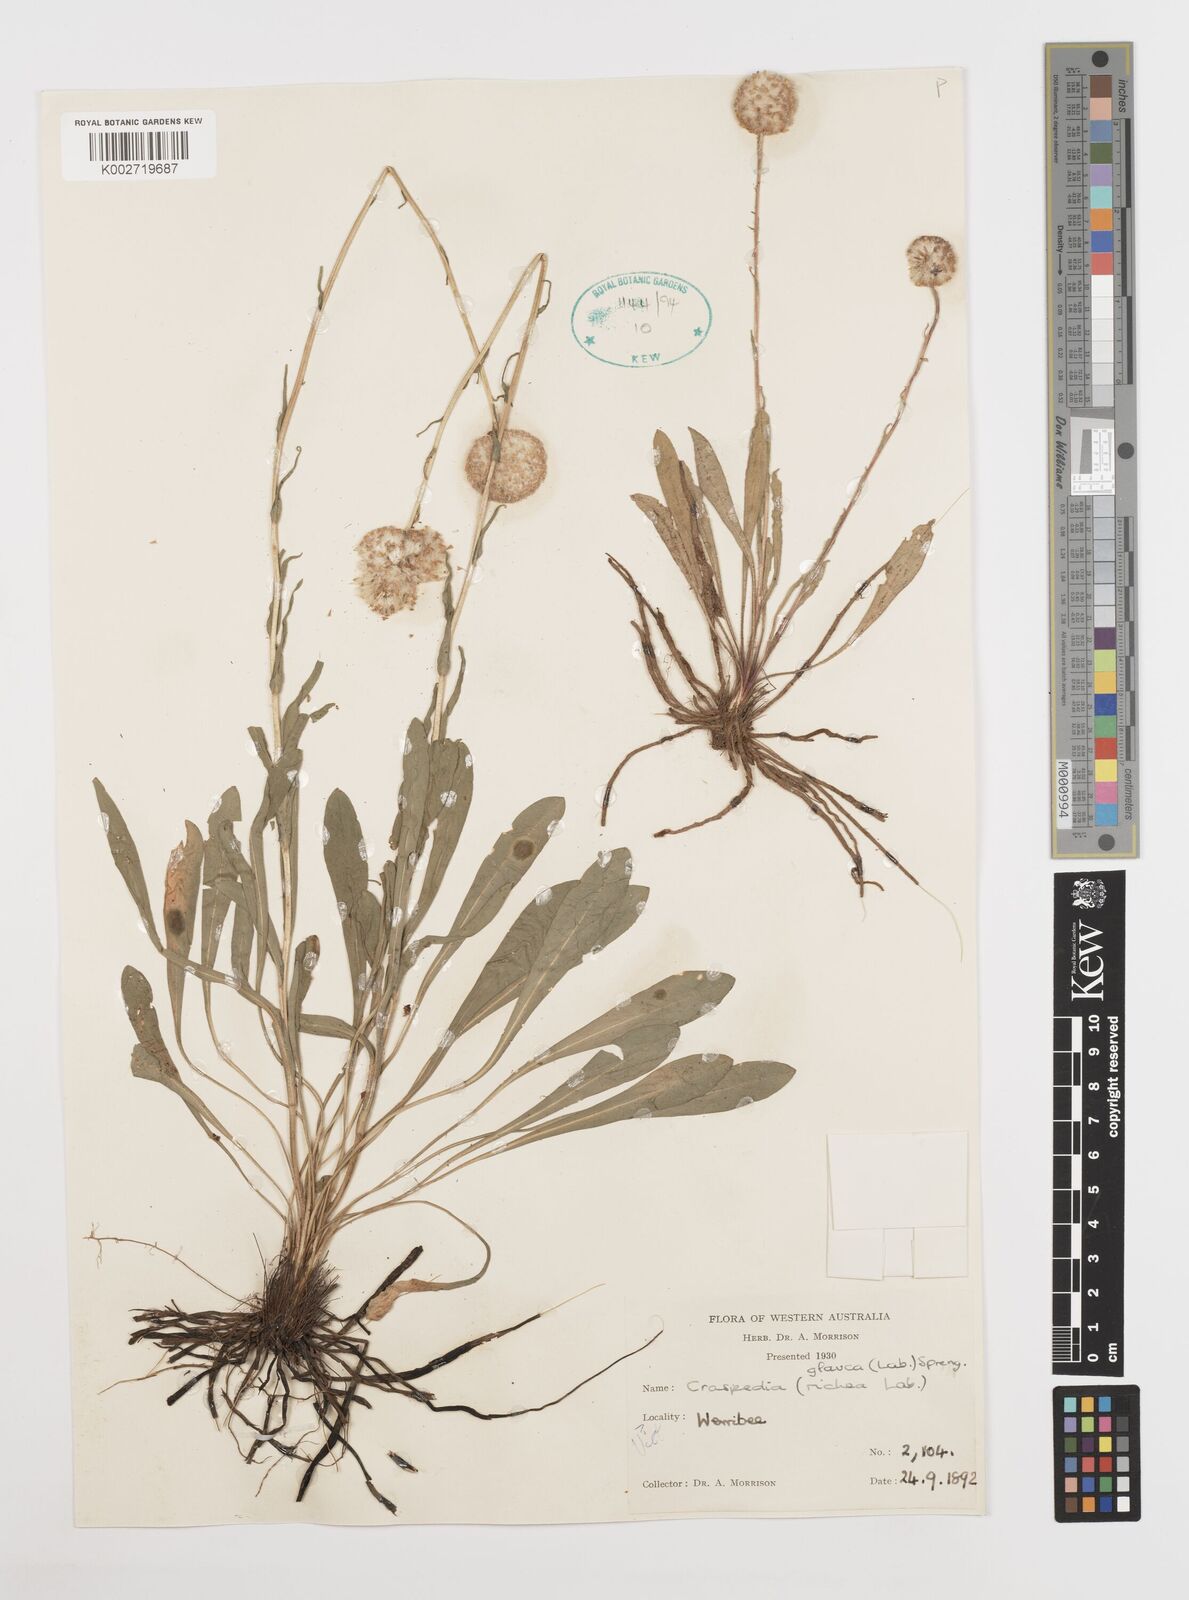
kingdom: Plantae
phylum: Tracheophyta
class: Magnoliopsida
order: Asterales
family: Asteraceae
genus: Craspedia
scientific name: Craspedia glauca
